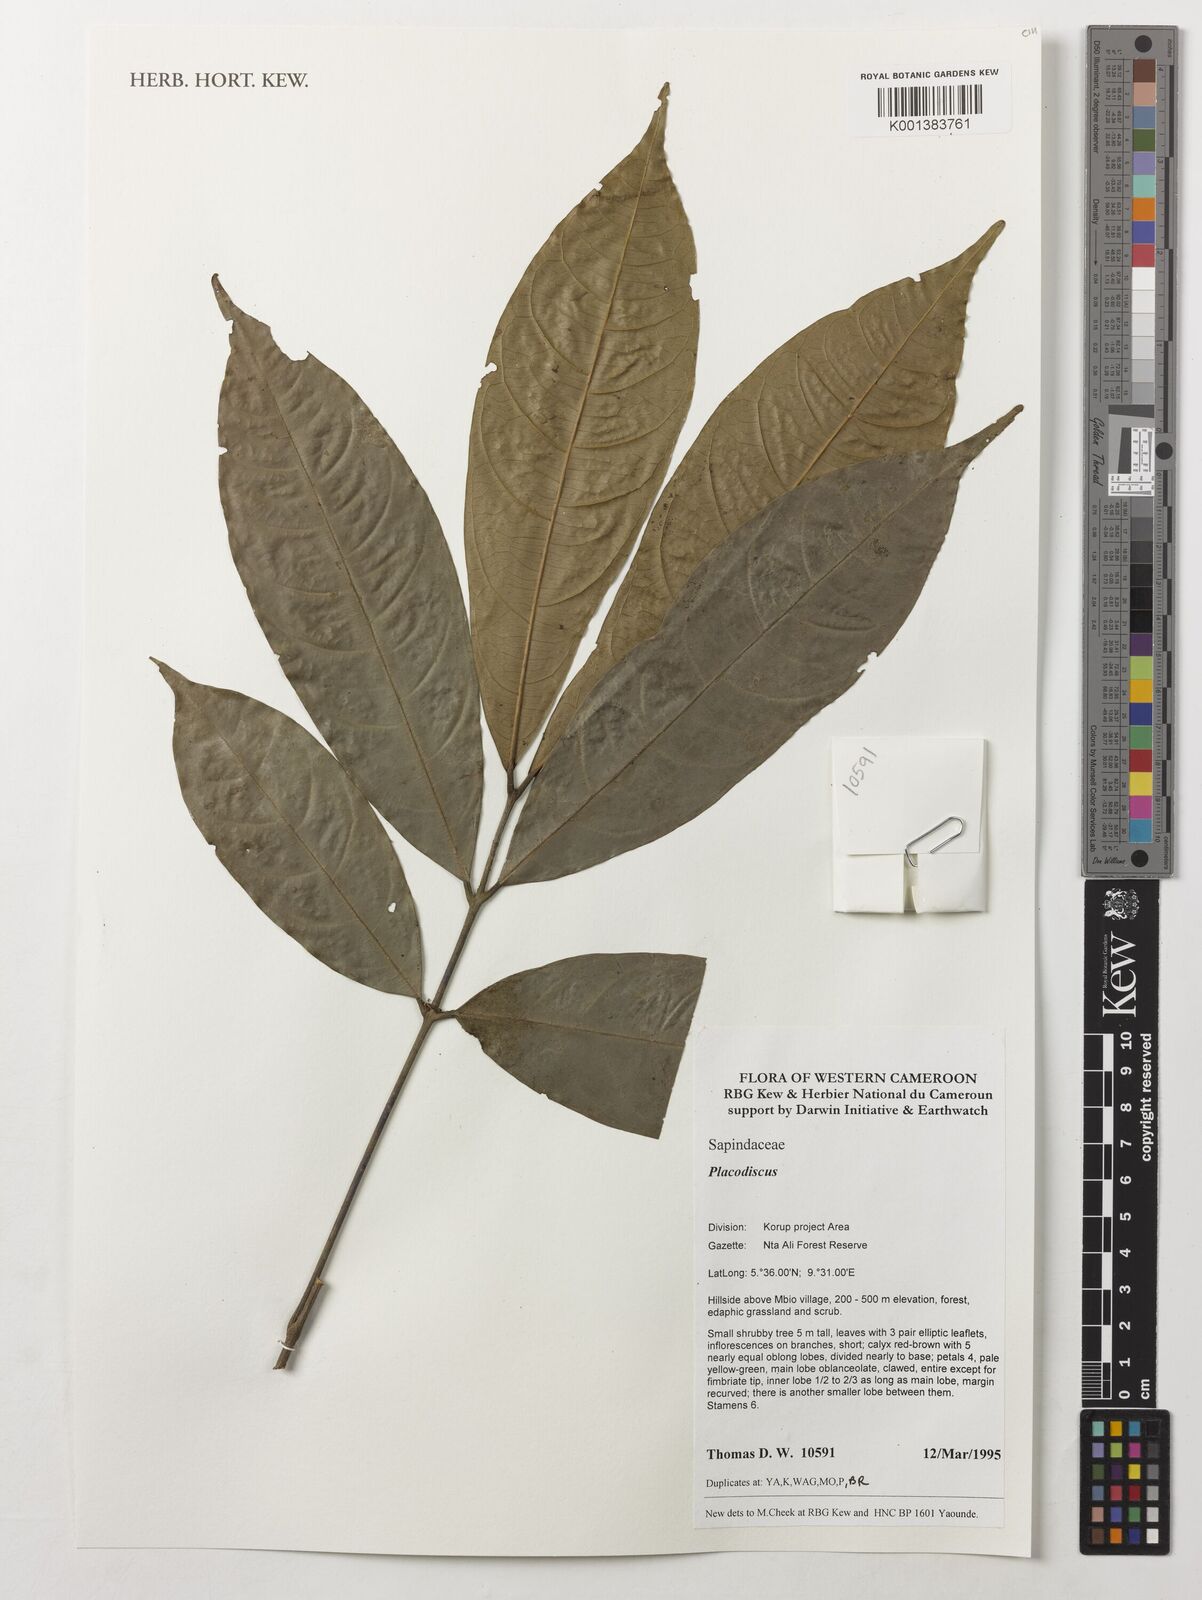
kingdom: Plantae
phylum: Tracheophyta
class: Magnoliopsida
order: Sapindales
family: Sapindaceae
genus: Placodiscus
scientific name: Placodiscus
